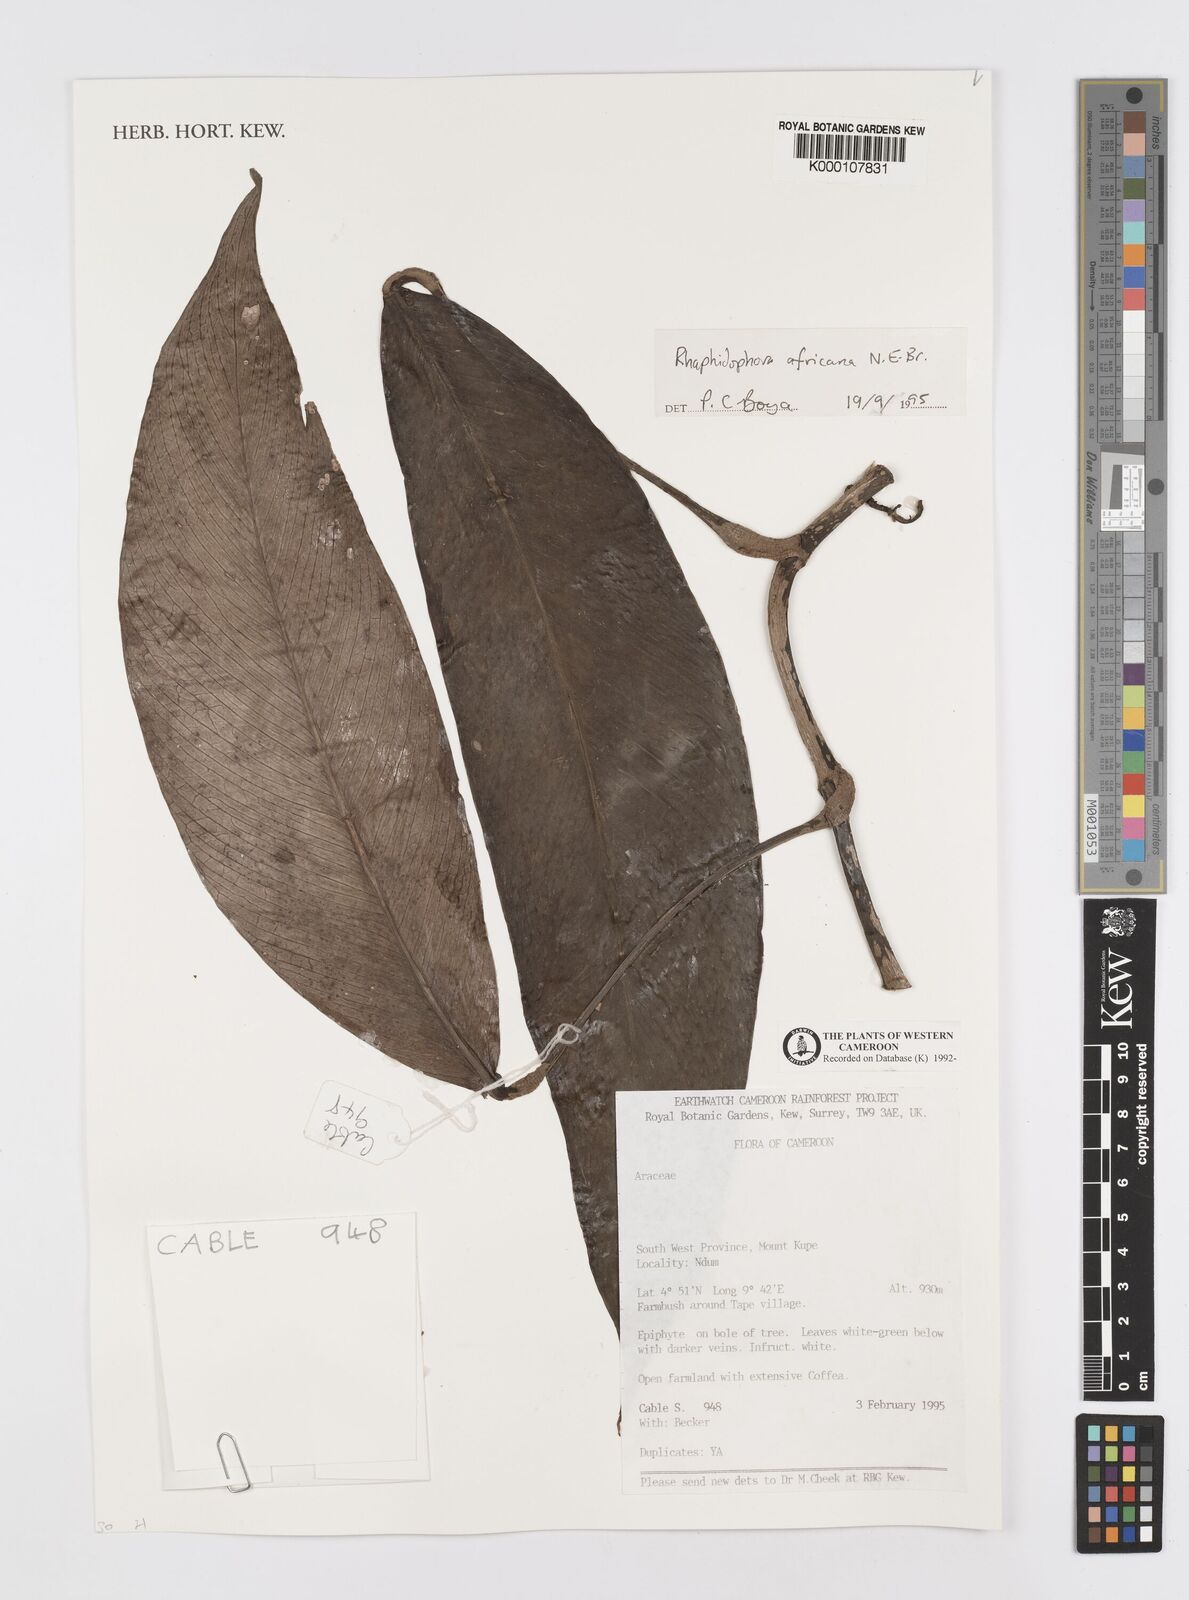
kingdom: Plantae
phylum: Tracheophyta
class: Liliopsida
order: Alismatales
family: Araceae
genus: Rhaphidophora
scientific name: Rhaphidophora africana
